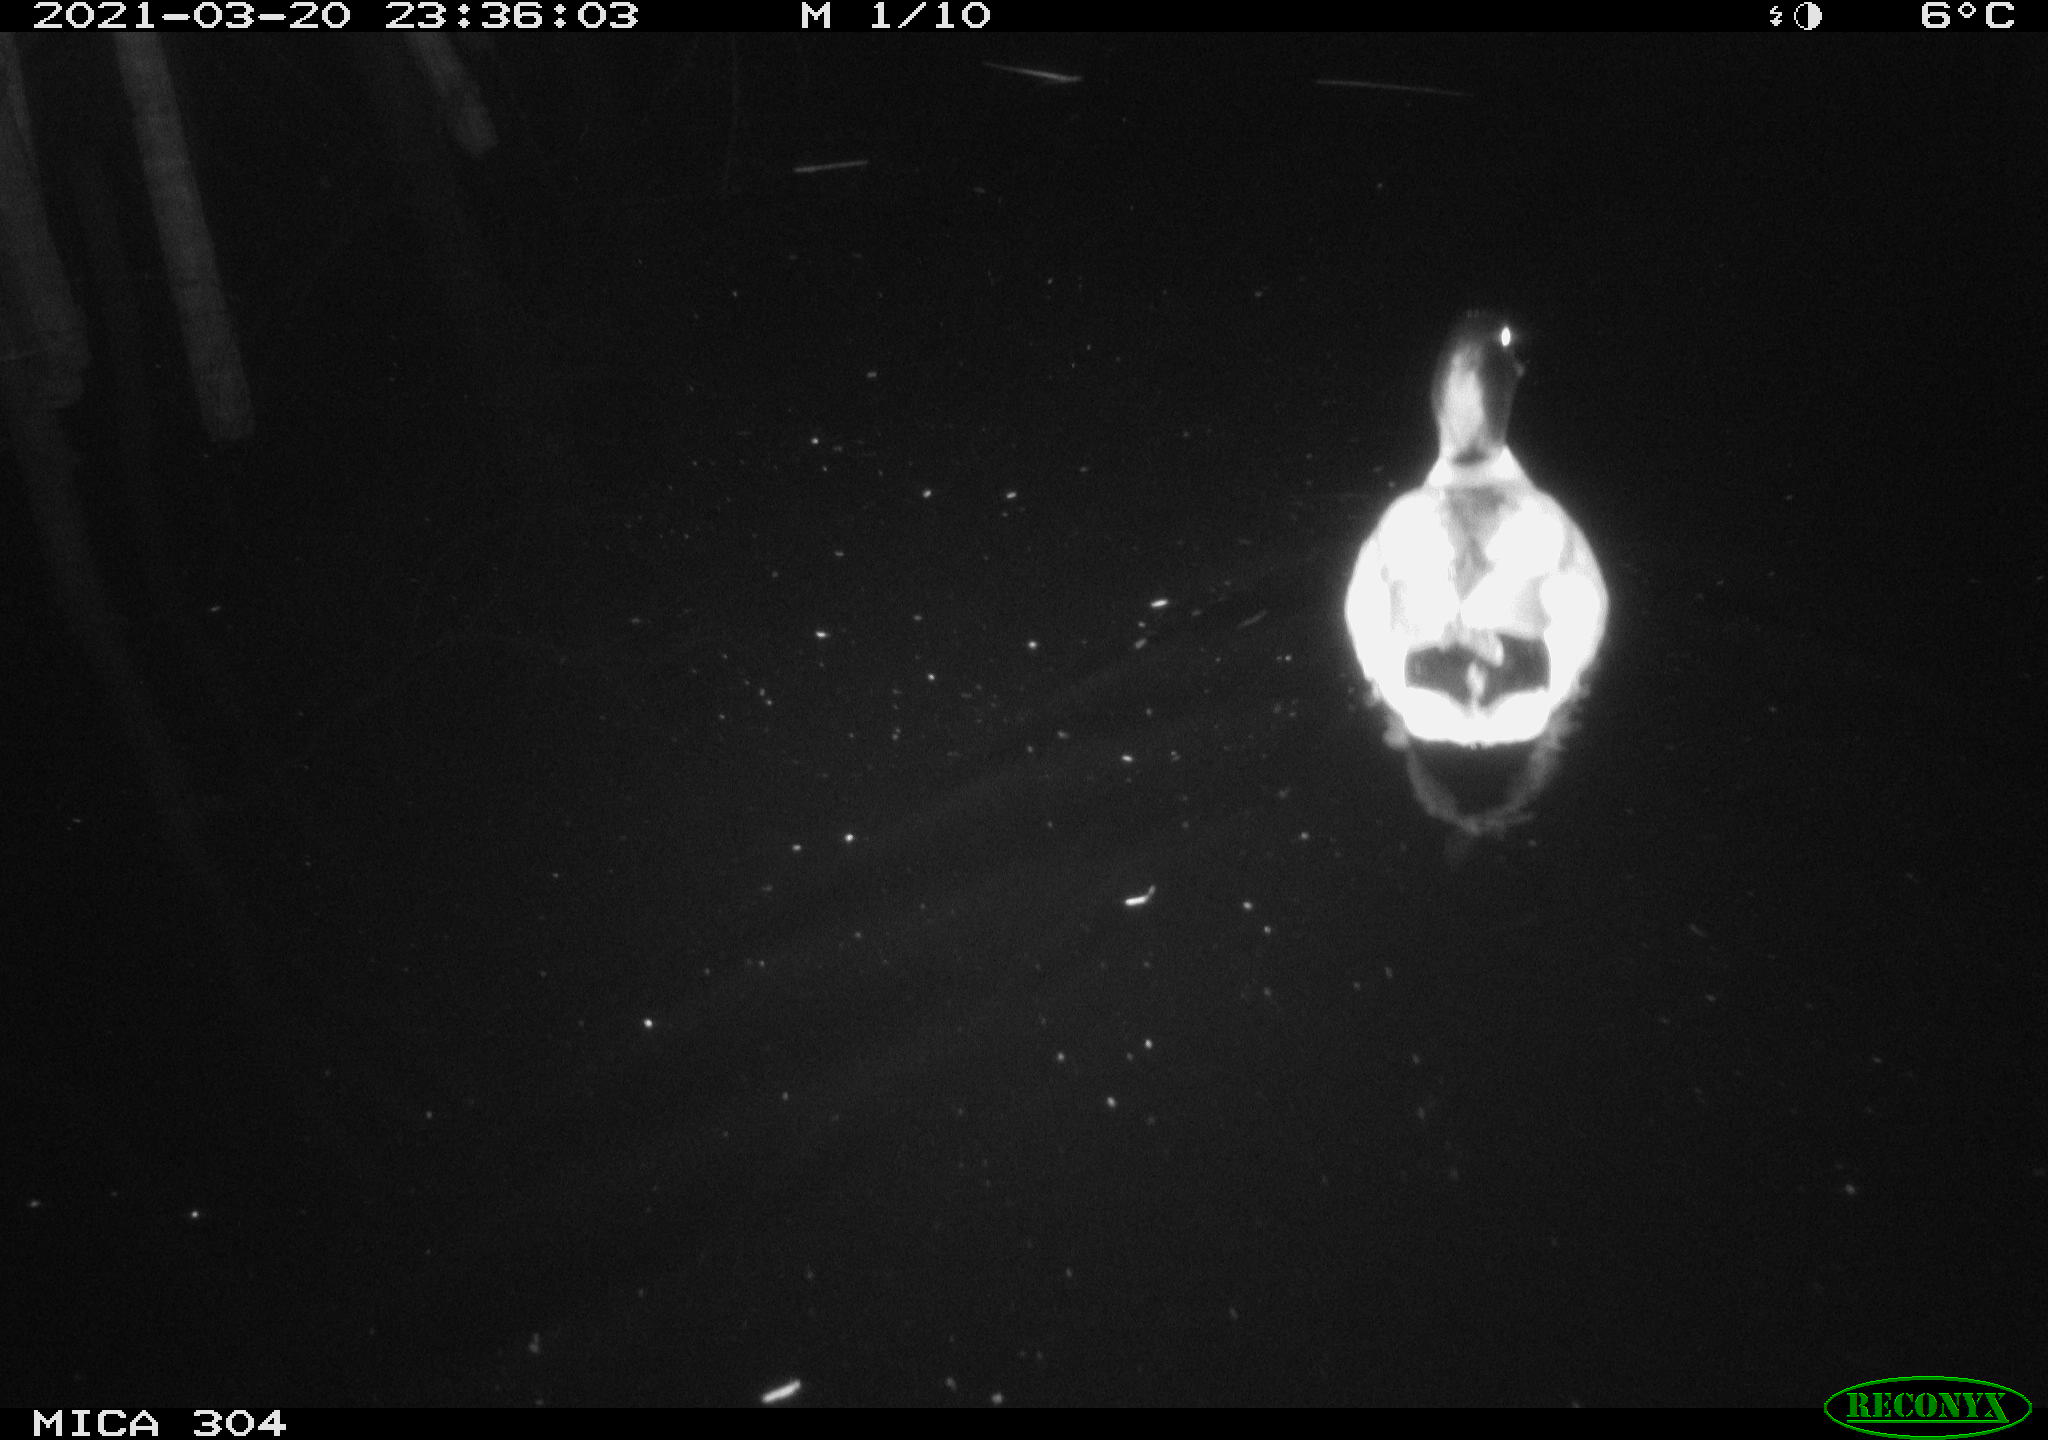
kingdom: Animalia
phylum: Chordata
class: Aves
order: Anseriformes
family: Anatidae
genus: Anas
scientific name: Anas platyrhynchos
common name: Mallard
